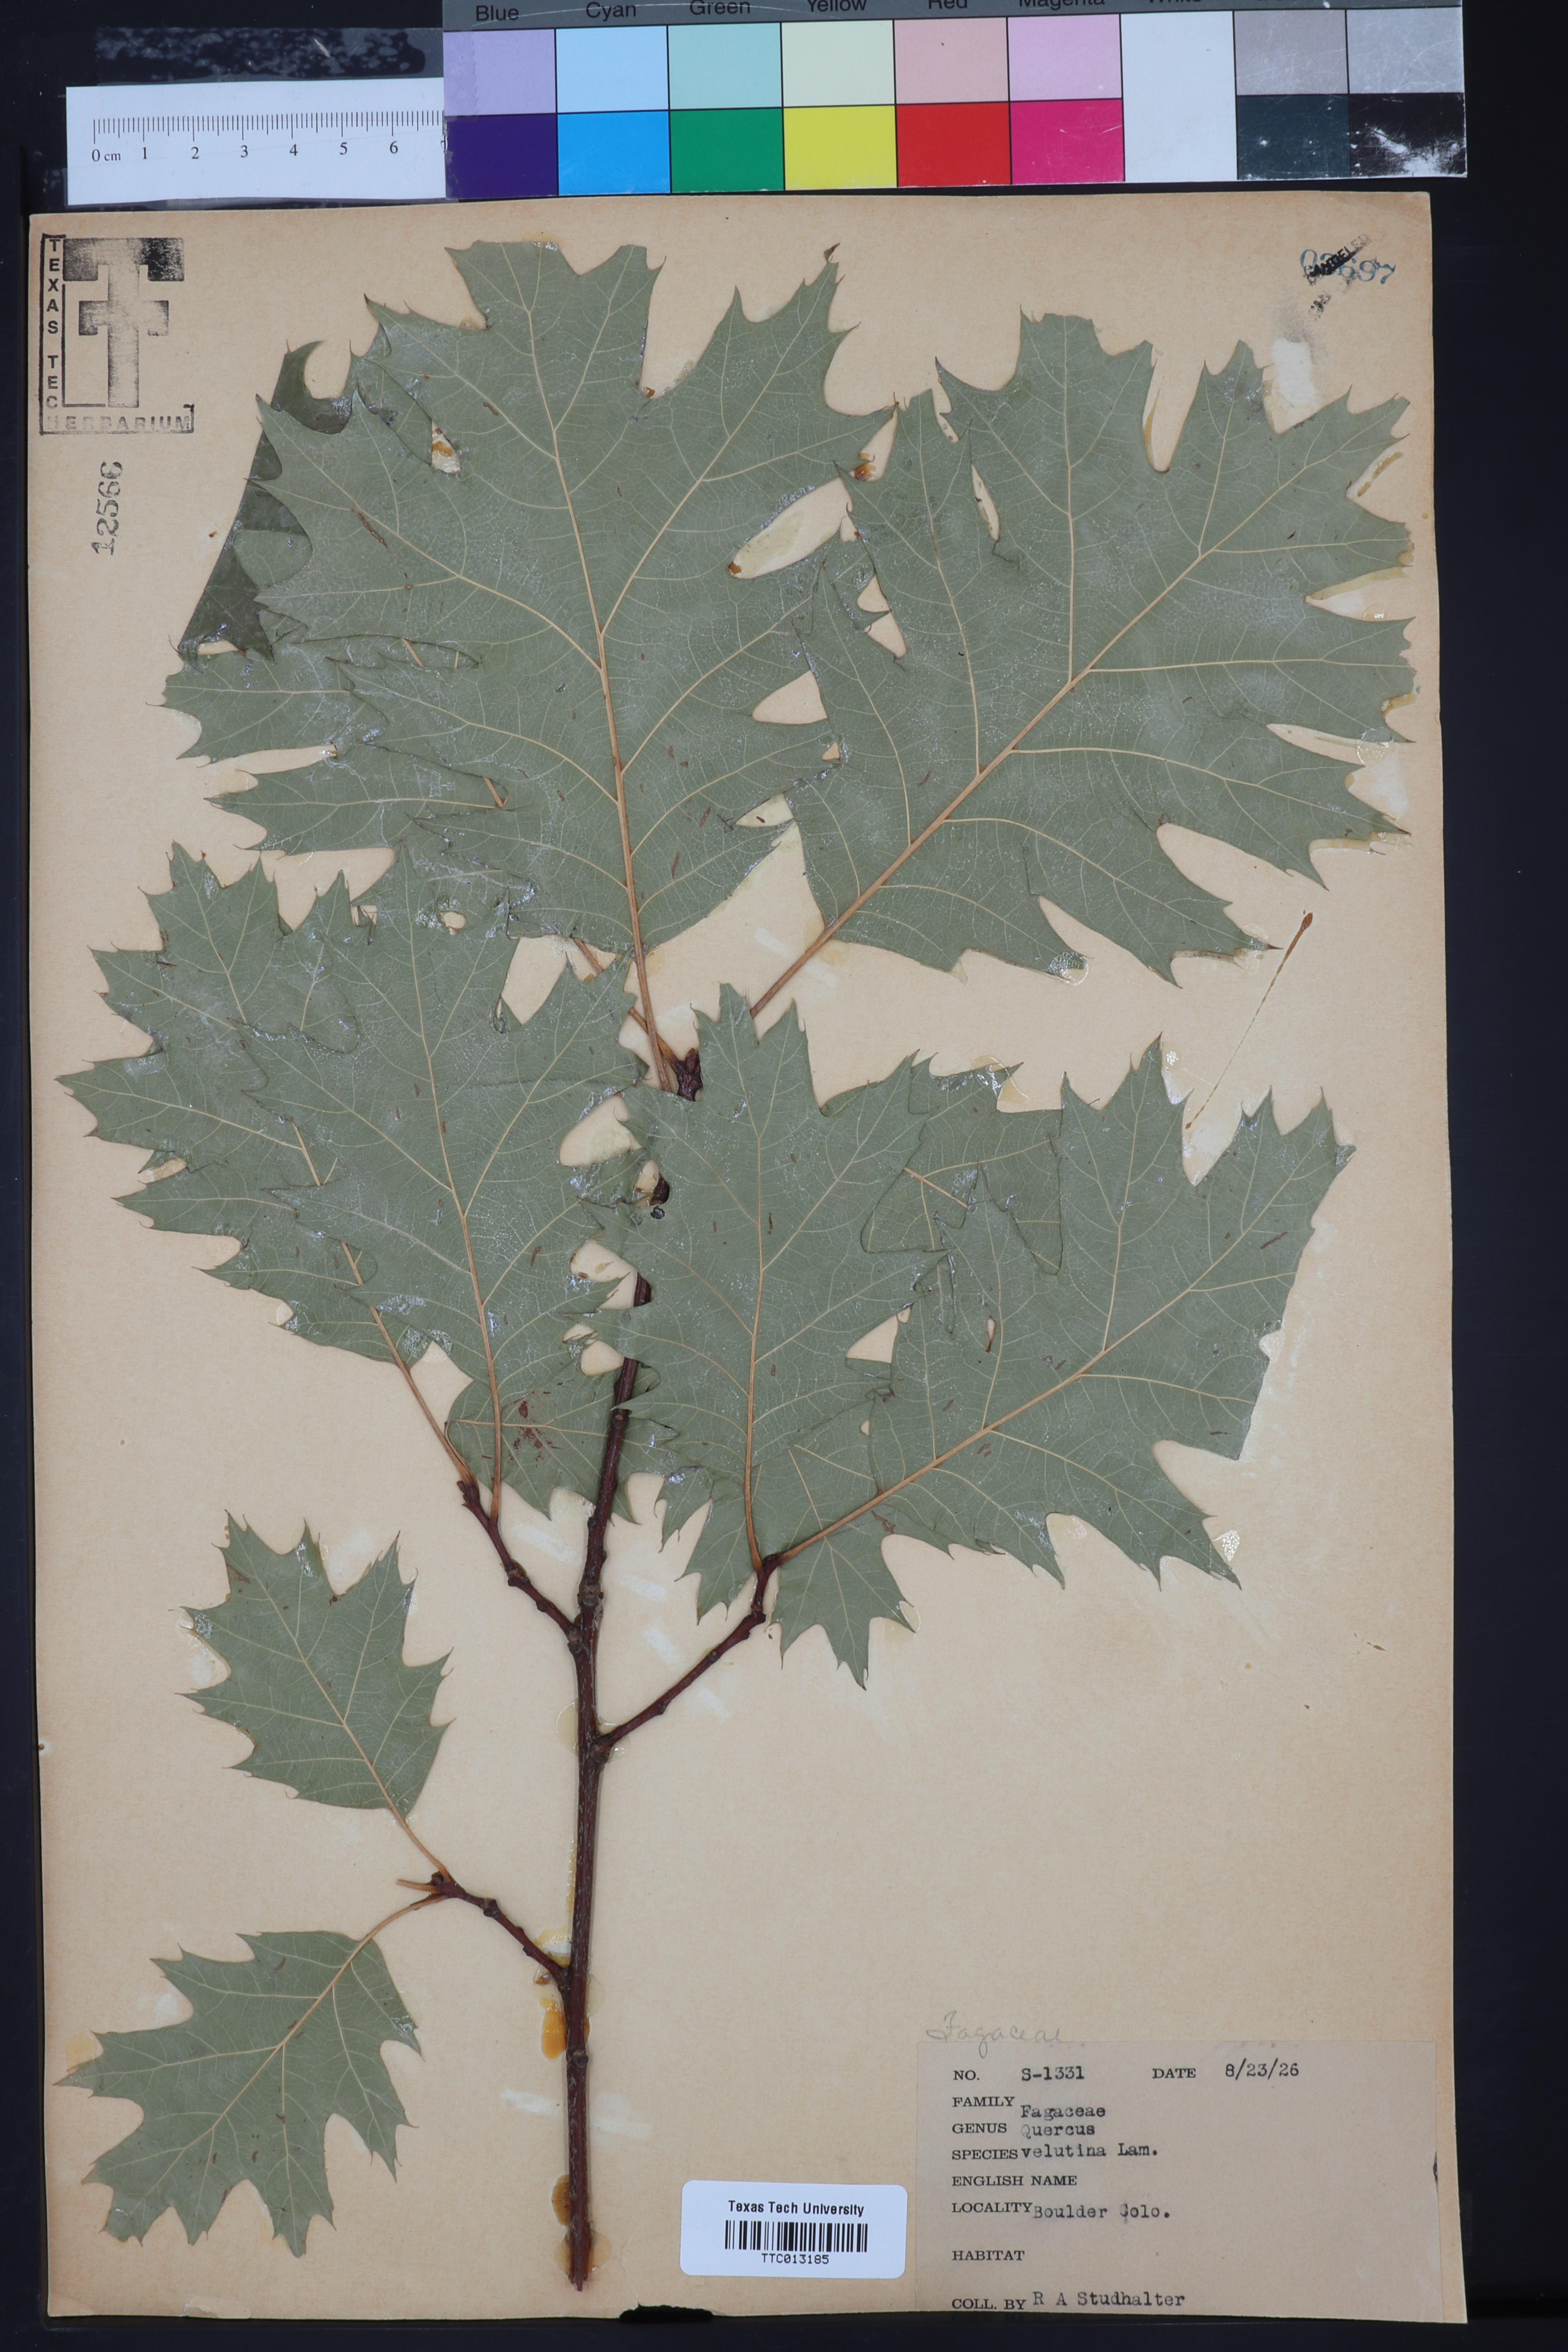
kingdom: Plantae
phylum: Tracheophyta
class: Magnoliopsida
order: Fagales
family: Fagaceae
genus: Quercus
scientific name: Quercus velutina
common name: Black oak
